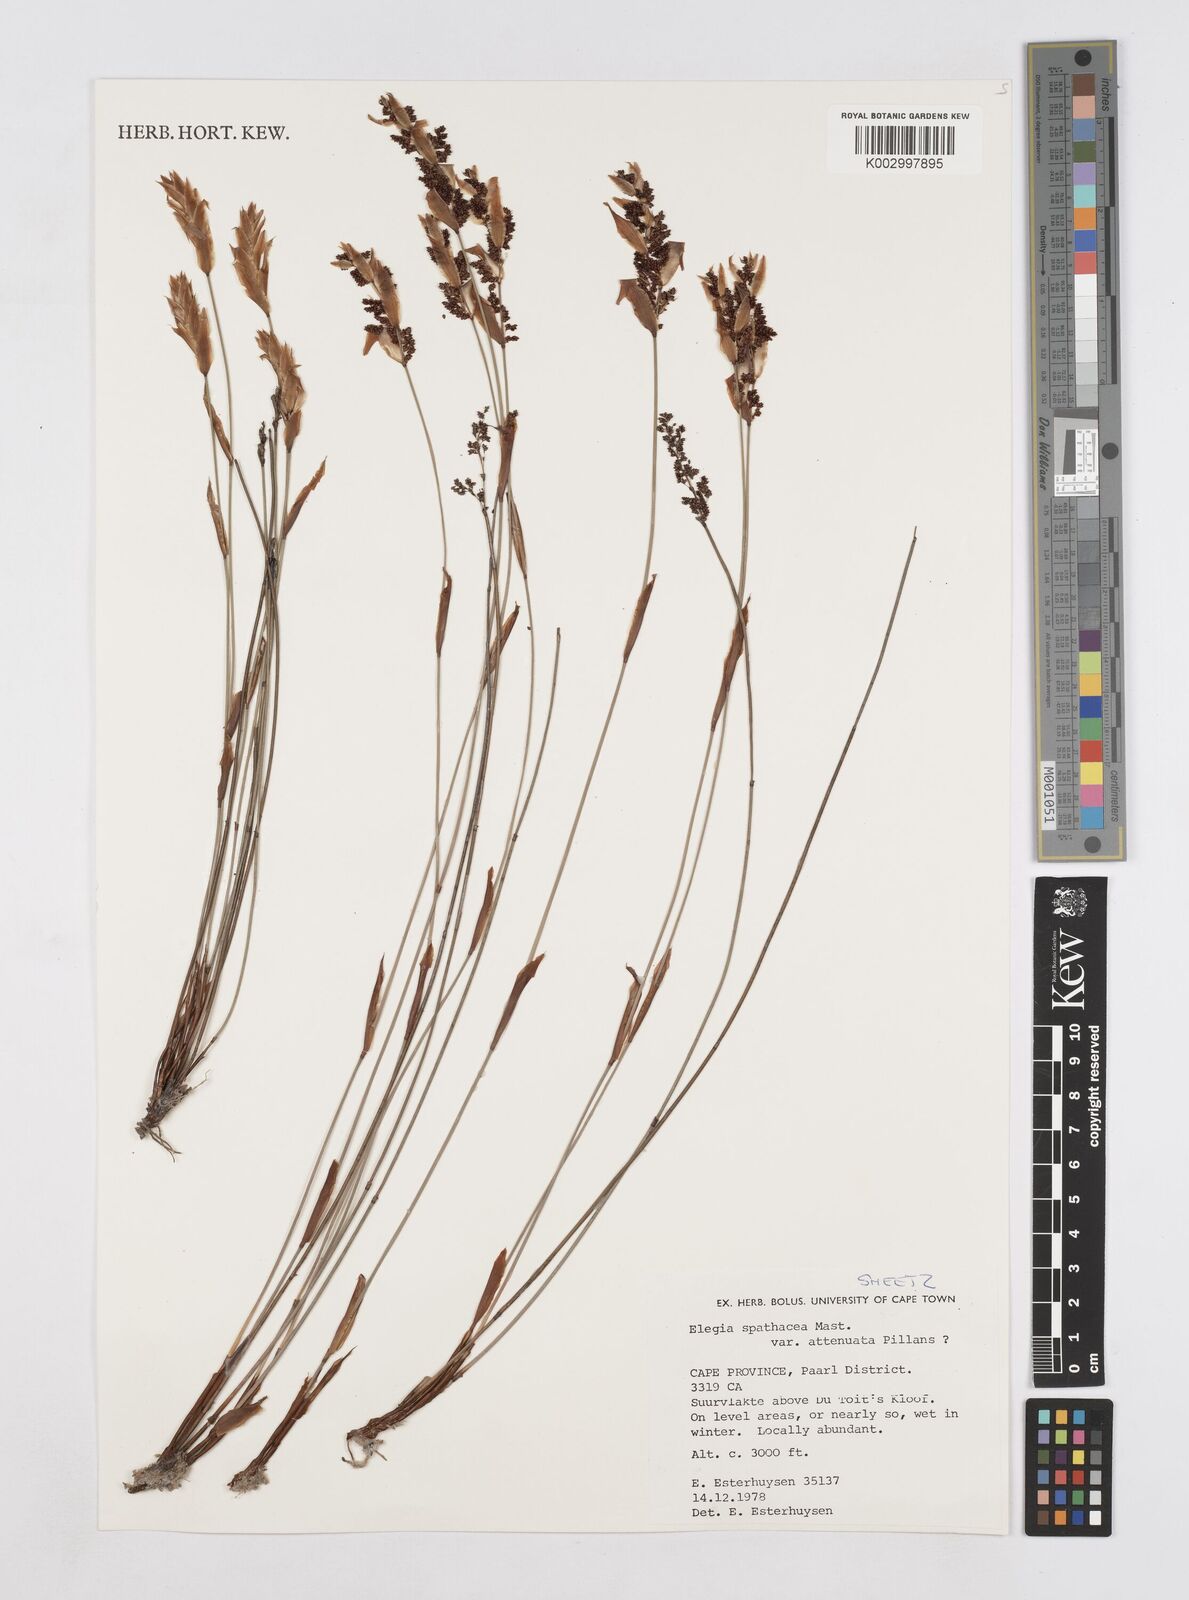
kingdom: Plantae
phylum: Tracheophyta
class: Liliopsida
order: Poales
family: Restionaceae
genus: Elegia
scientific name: Elegia rigida
